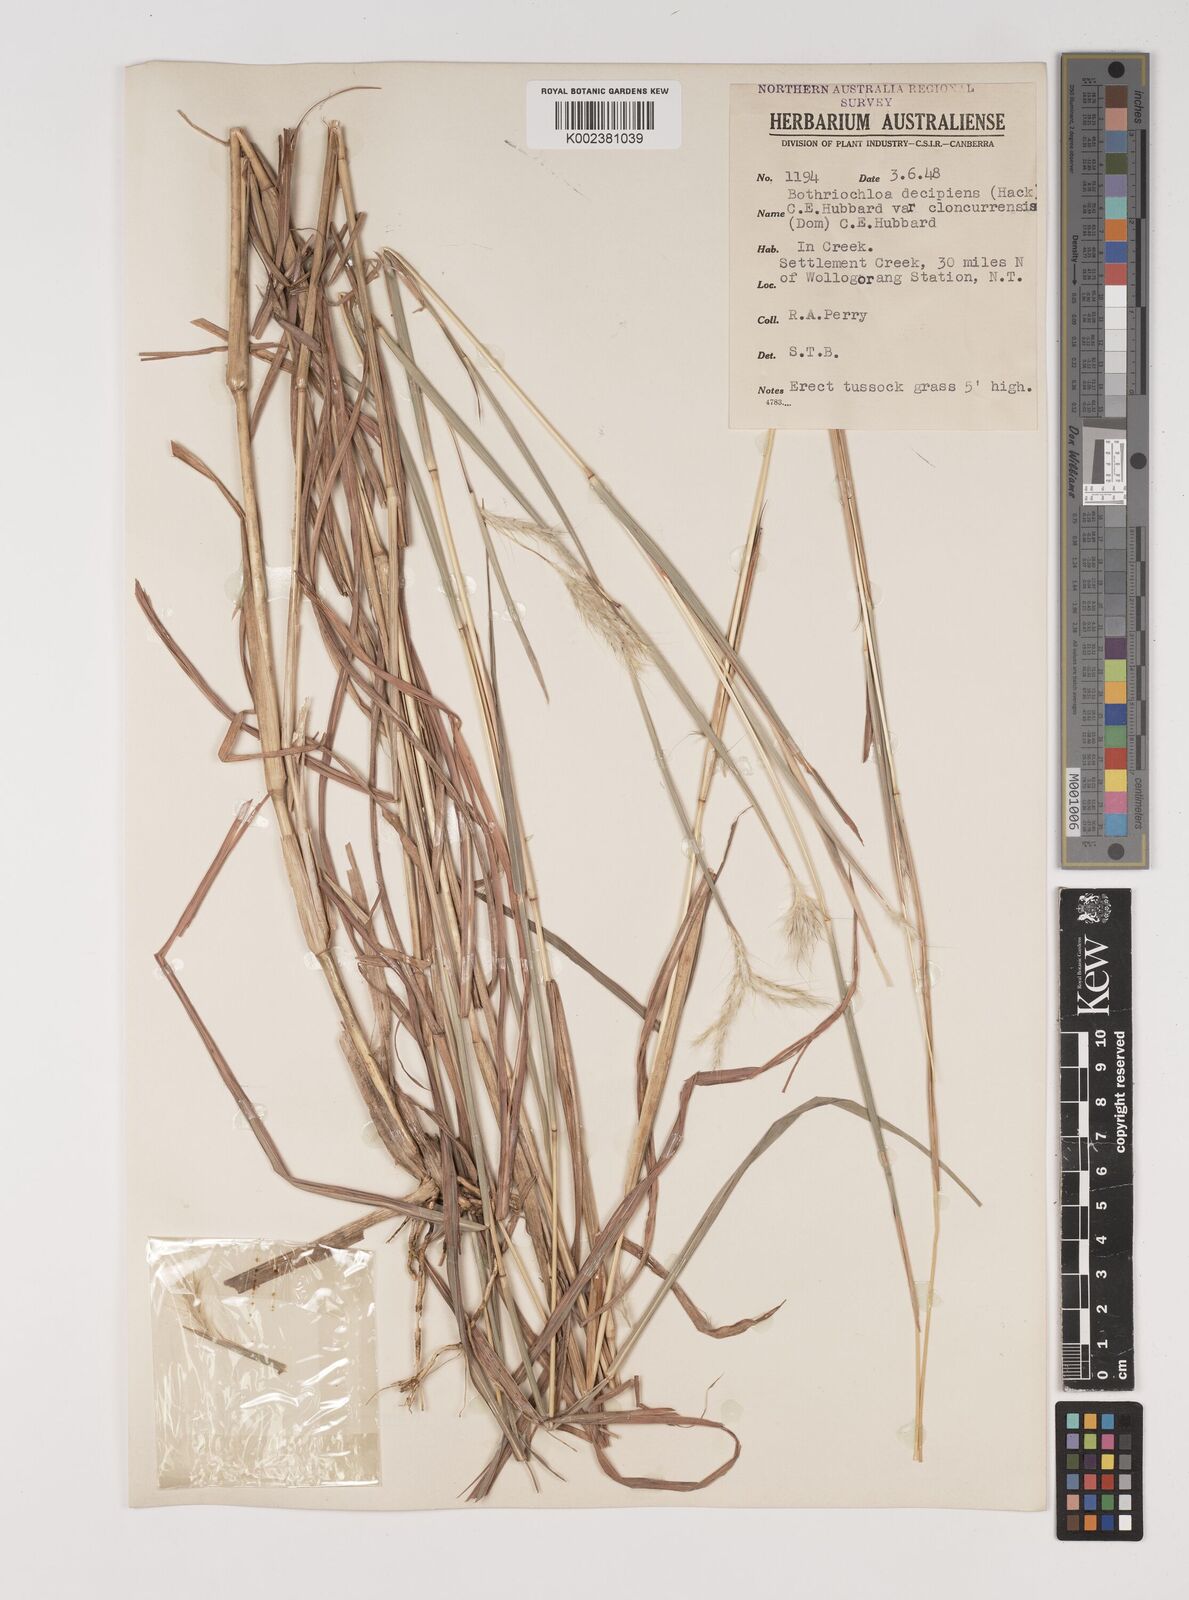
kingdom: Plantae
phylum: Tracheophyta
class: Liliopsida
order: Poales
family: Poaceae
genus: Bothriochloa
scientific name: Bothriochloa decipiens
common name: Pitted-bluegrass
